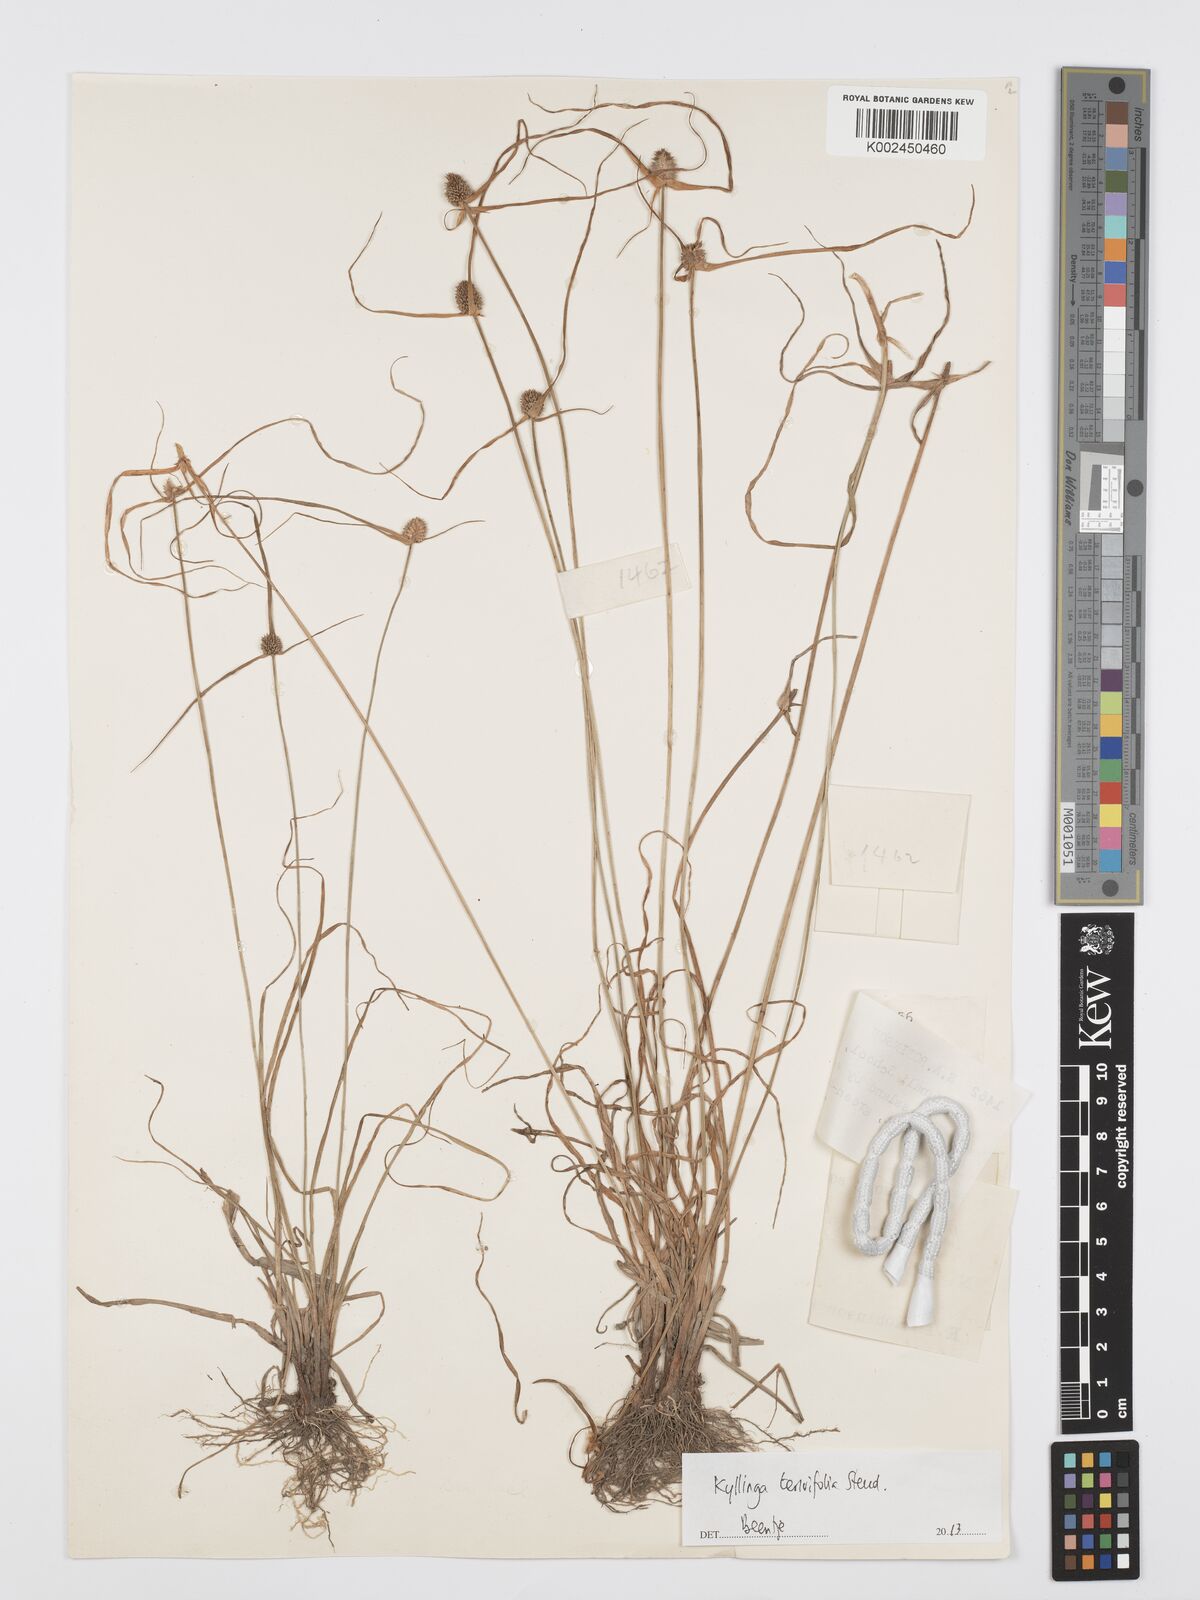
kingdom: Plantae
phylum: Tracheophyta
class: Liliopsida
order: Poales
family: Cyperaceae
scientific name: Cyperaceae
